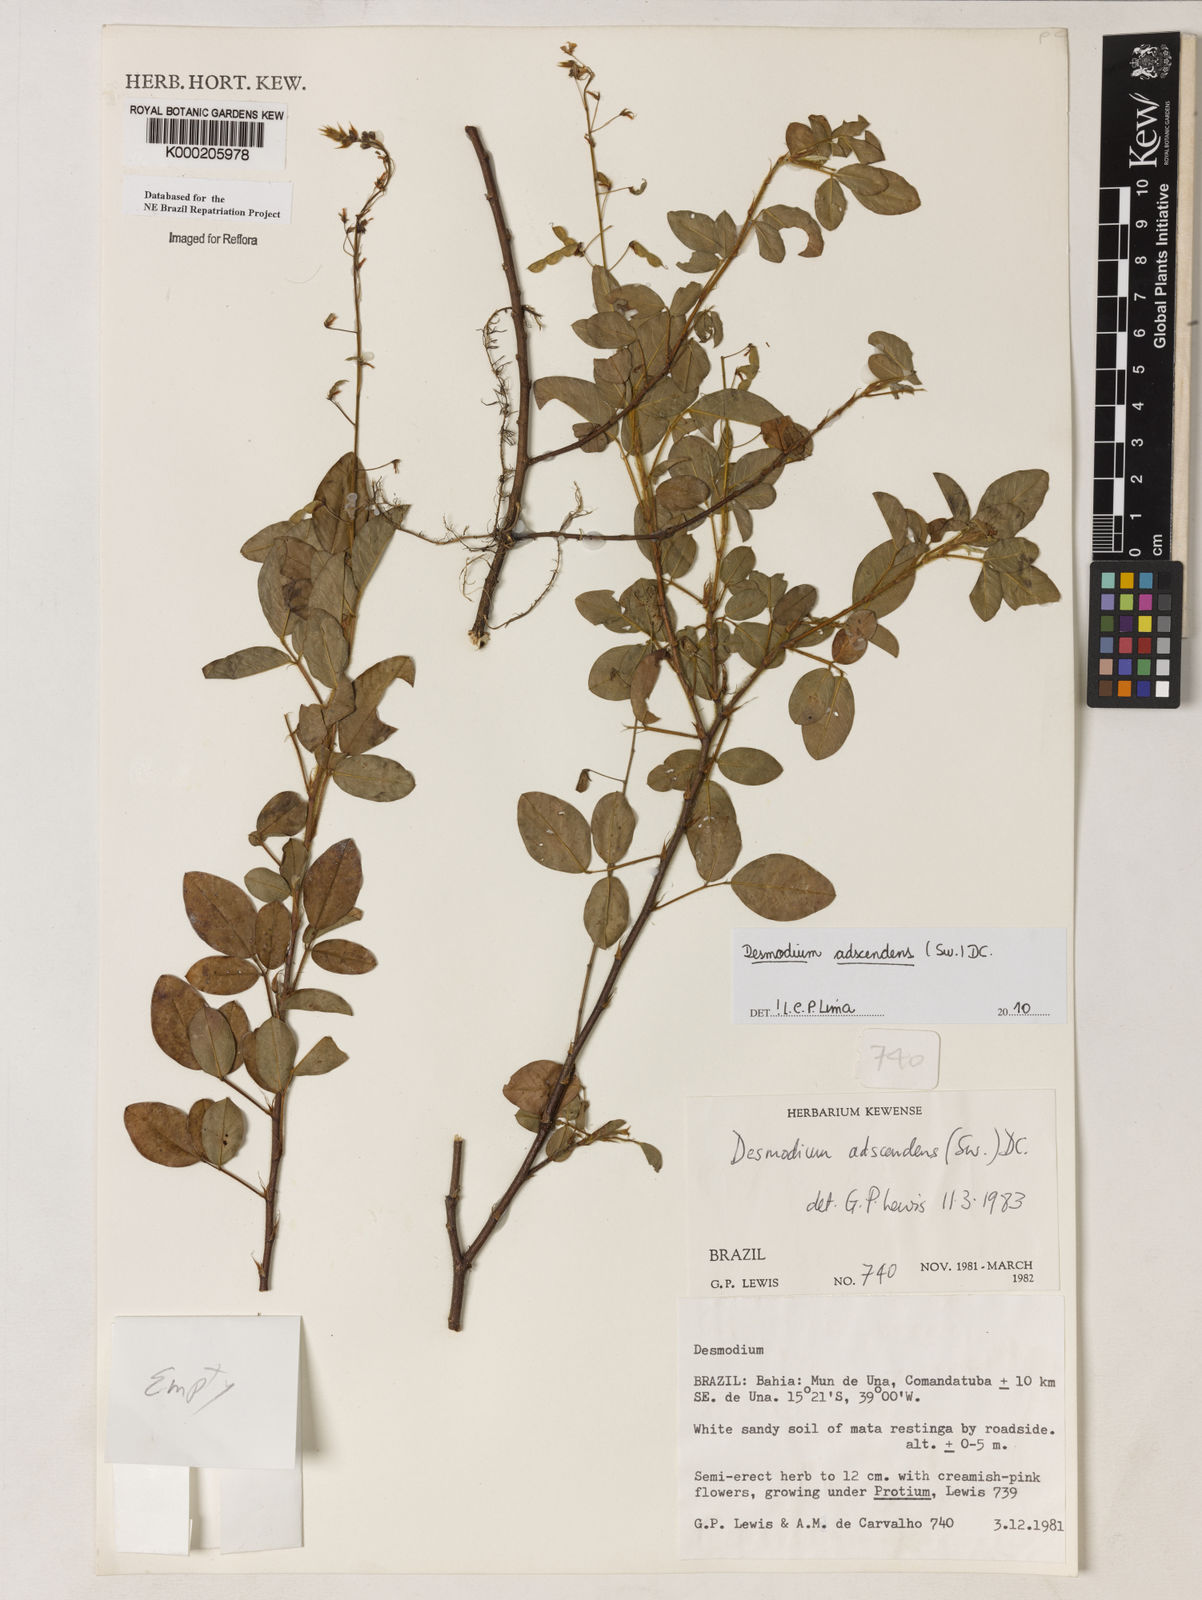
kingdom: Plantae
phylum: Tracheophyta
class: Magnoliopsida
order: Fabales
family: Fabaceae
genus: Grona
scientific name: Grona adscendens
